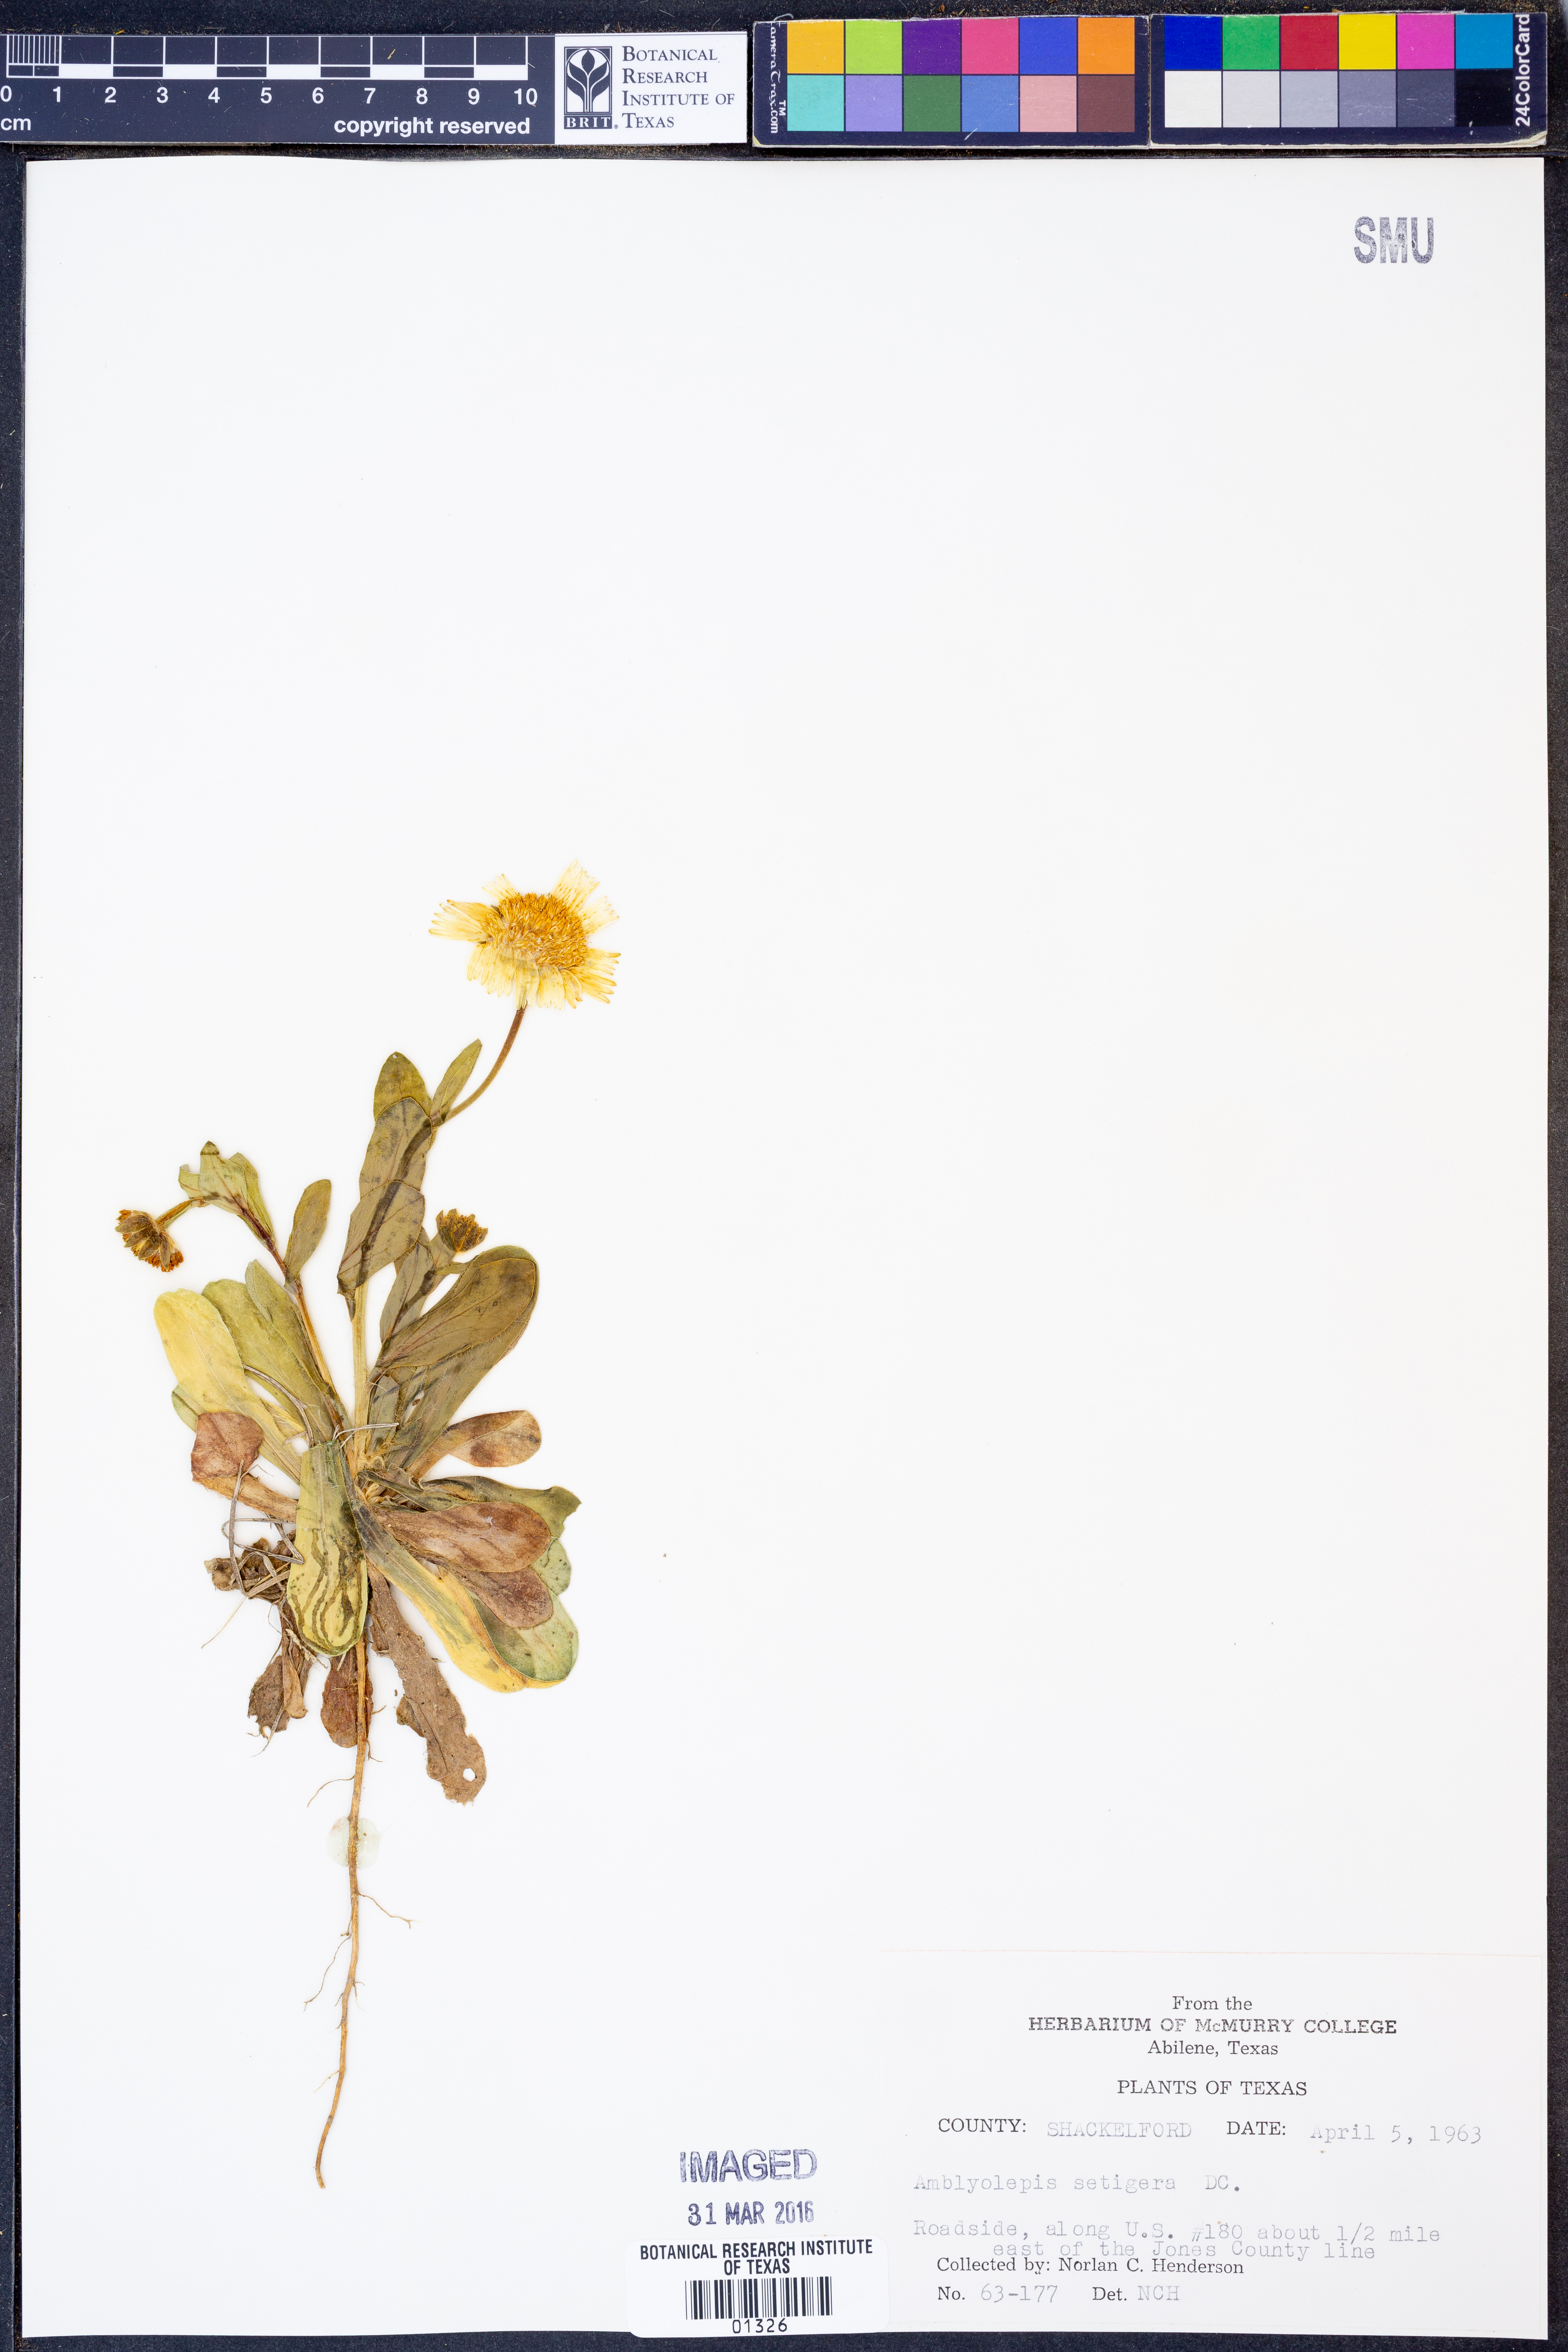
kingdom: Plantae
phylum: Tracheophyta
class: Magnoliopsida
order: Asterales
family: Asteraceae
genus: Amblyolepis
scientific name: Amblyolepis setigera
